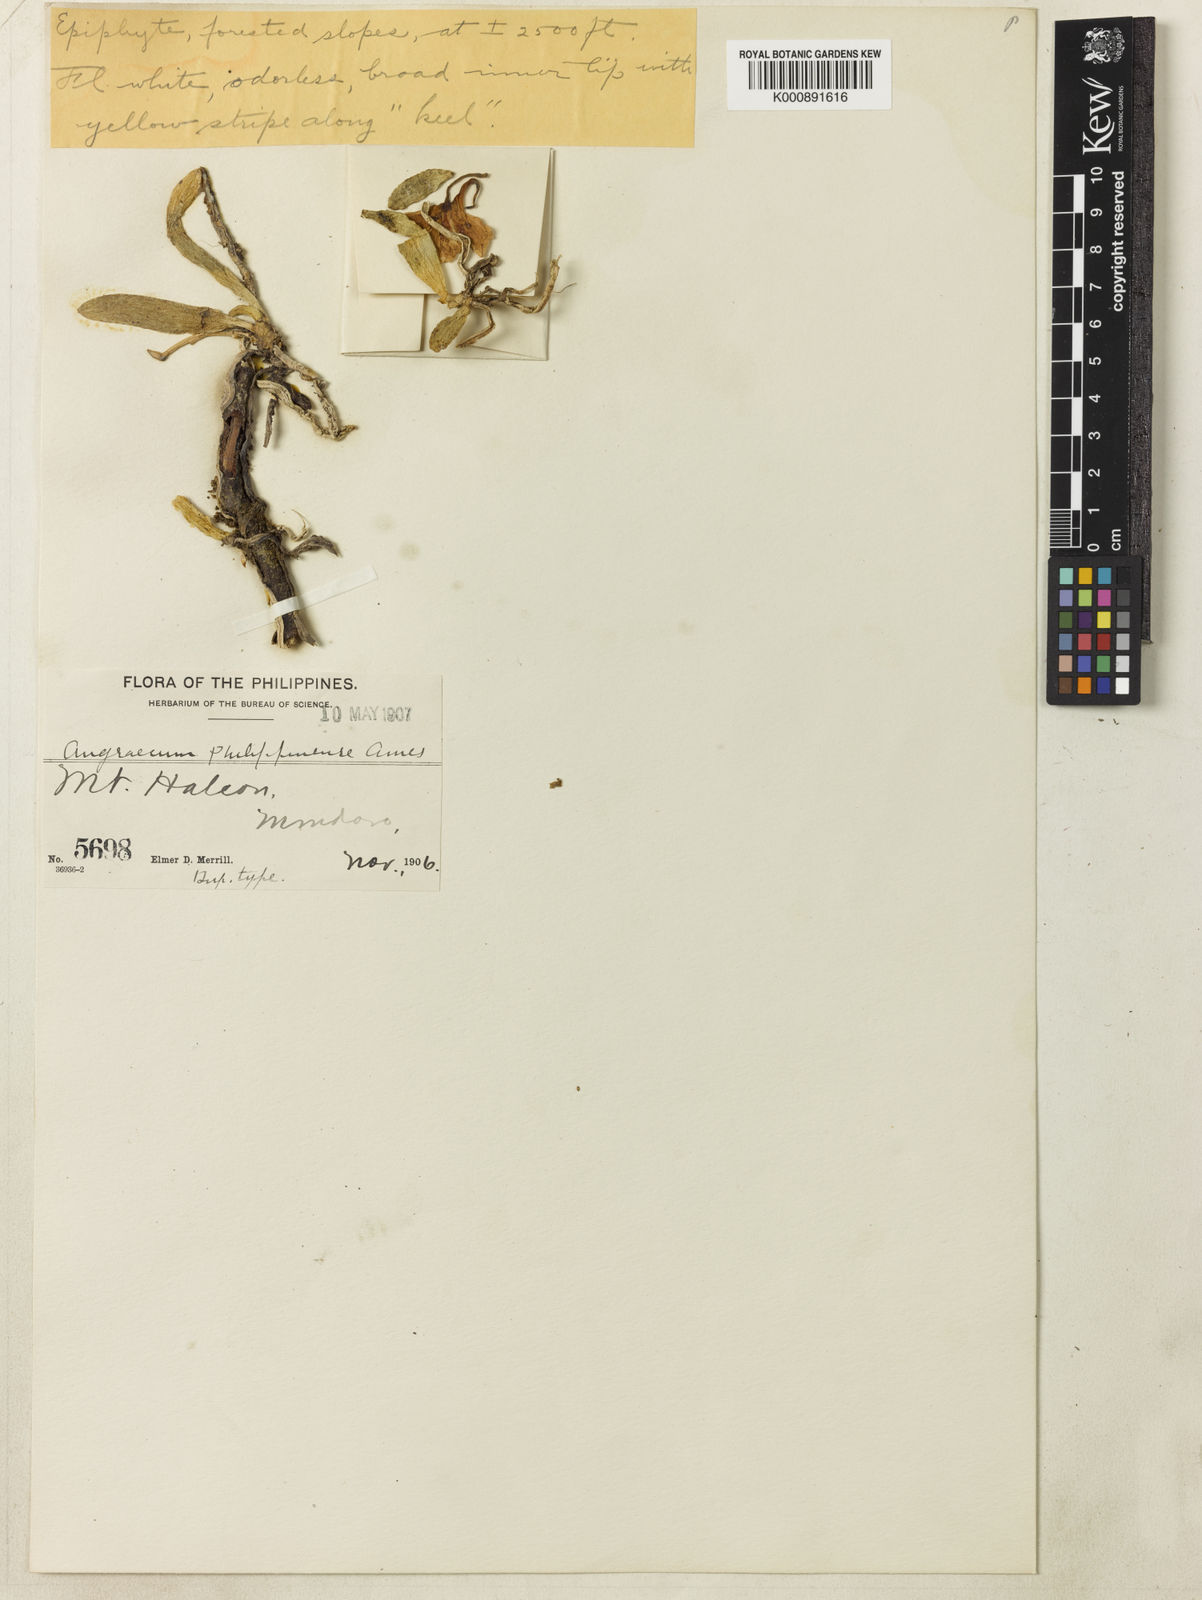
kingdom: Plantae
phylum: Tracheophyta
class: Liliopsida
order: Asparagales
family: Orchidaceae
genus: Amesiella
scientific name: Amesiella philippinensis
